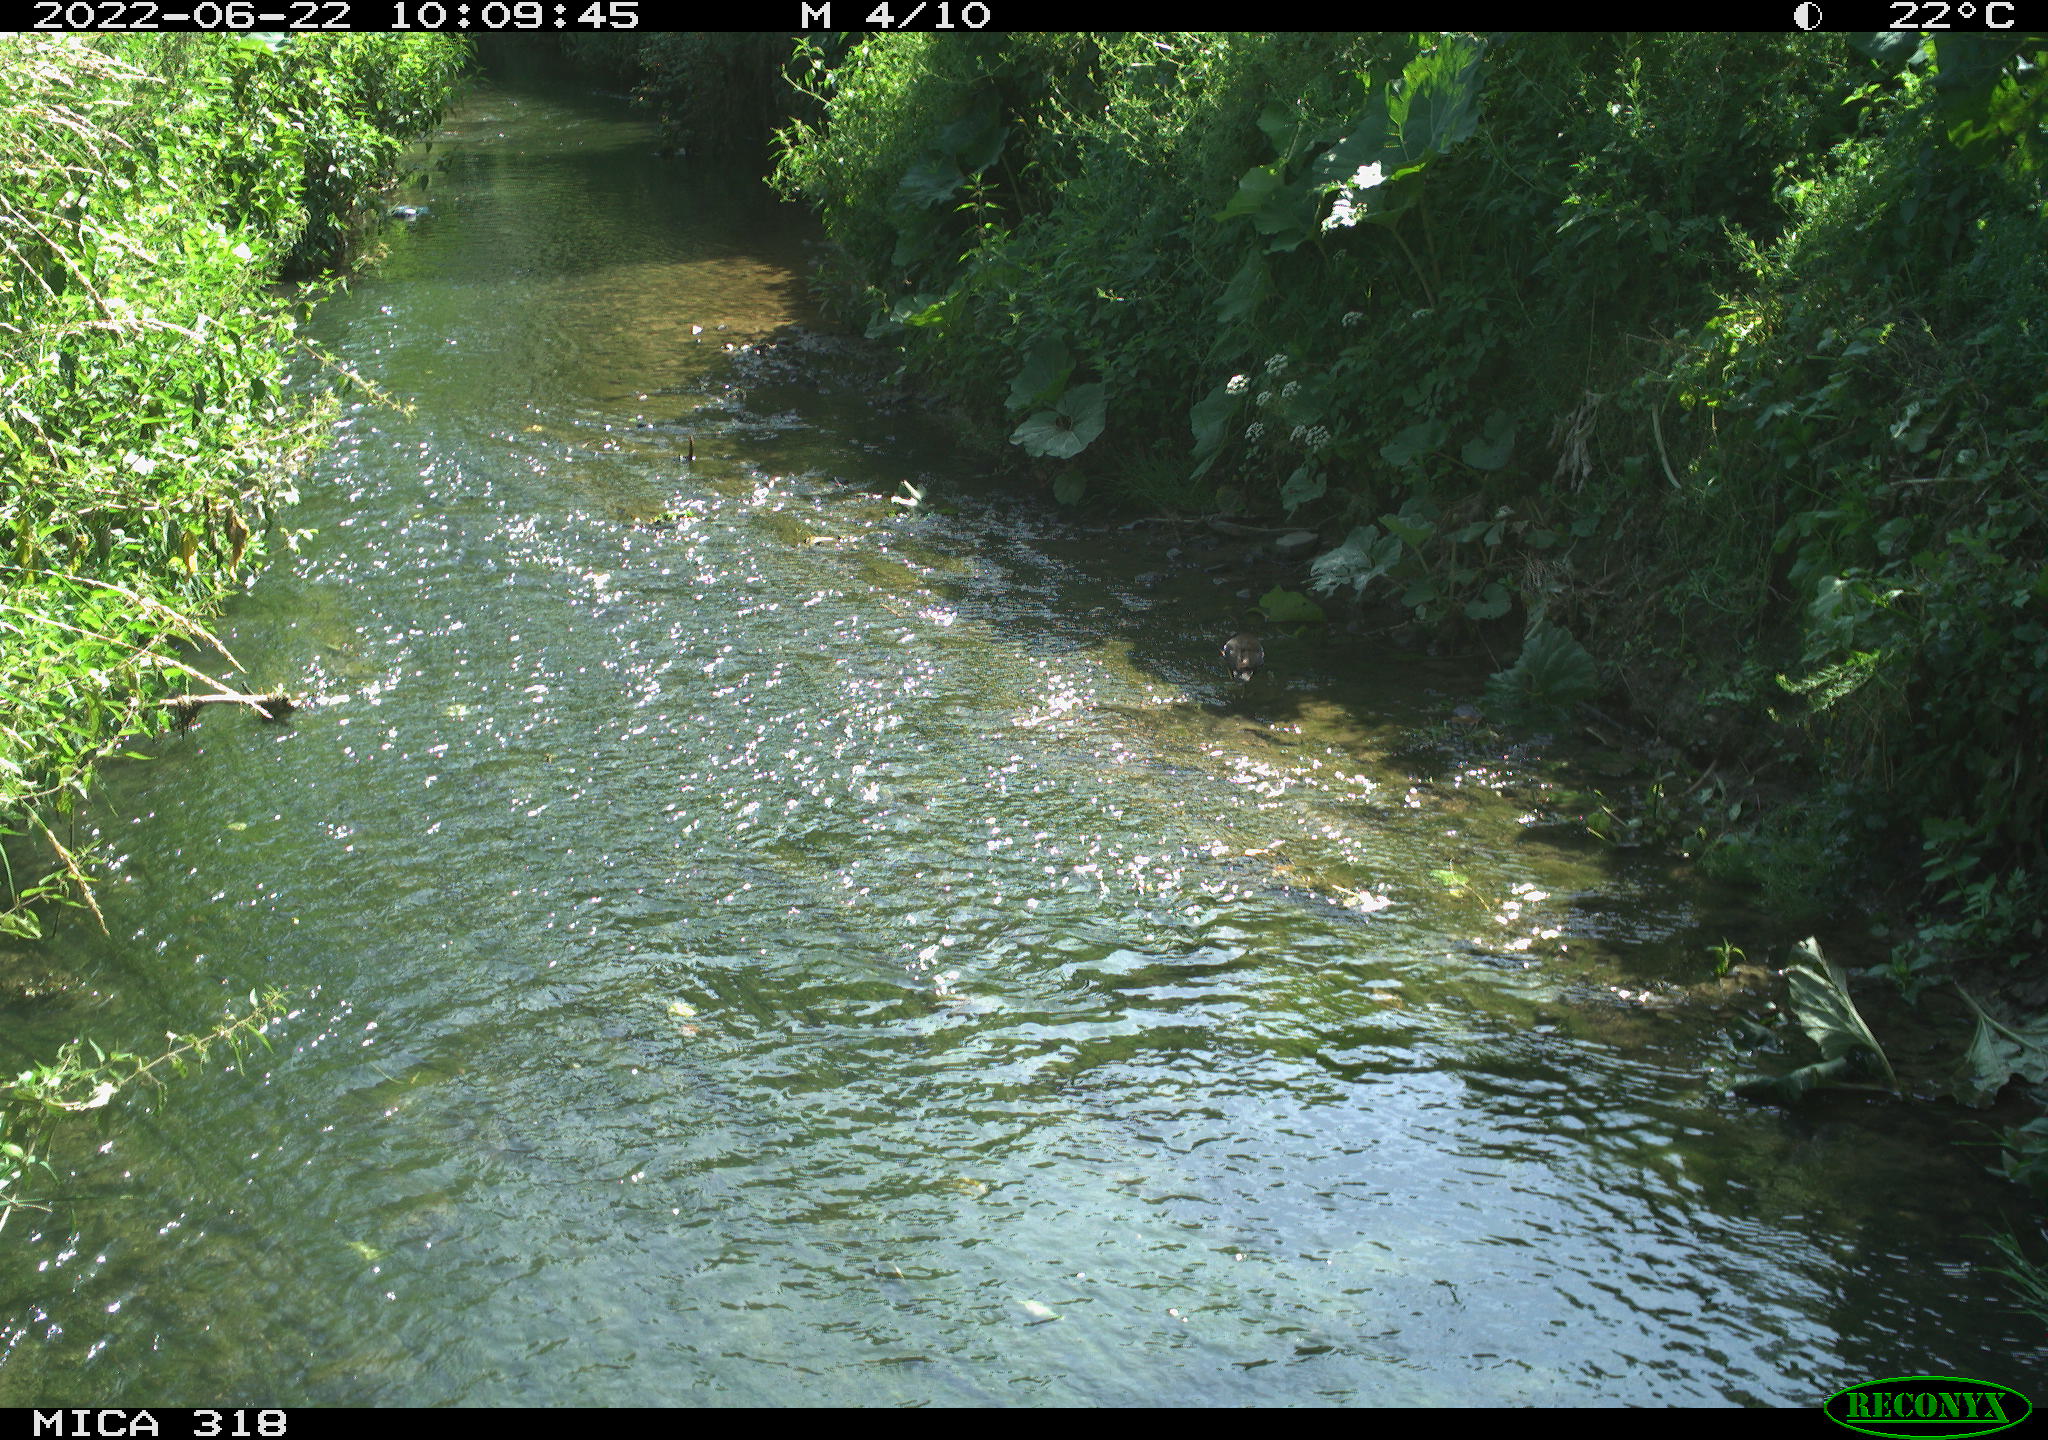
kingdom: Animalia
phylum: Chordata
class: Aves
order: Gruiformes
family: Rallidae
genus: Gallinula
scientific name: Gallinula chloropus
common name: Common moorhen
